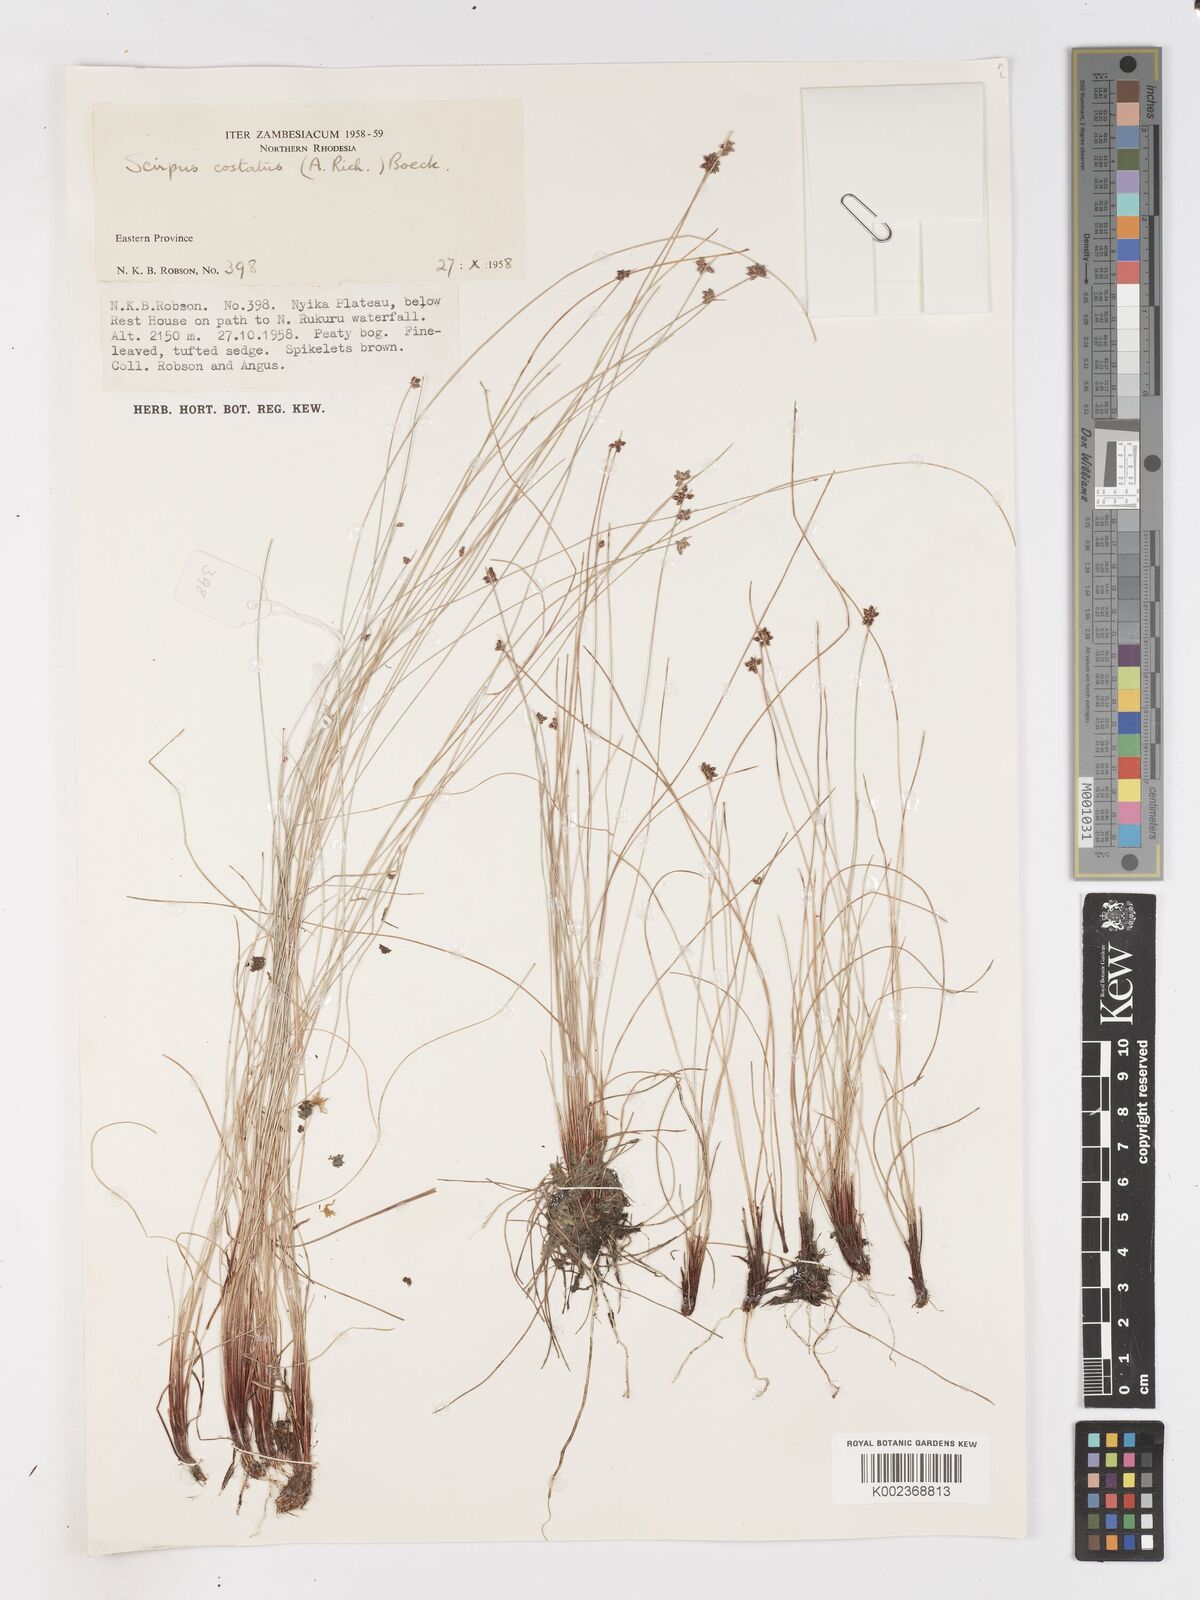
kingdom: Plantae
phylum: Tracheophyta
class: Liliopsida
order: Poales
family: Cyperaceae
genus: Isolepis
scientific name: Isolepis costata
